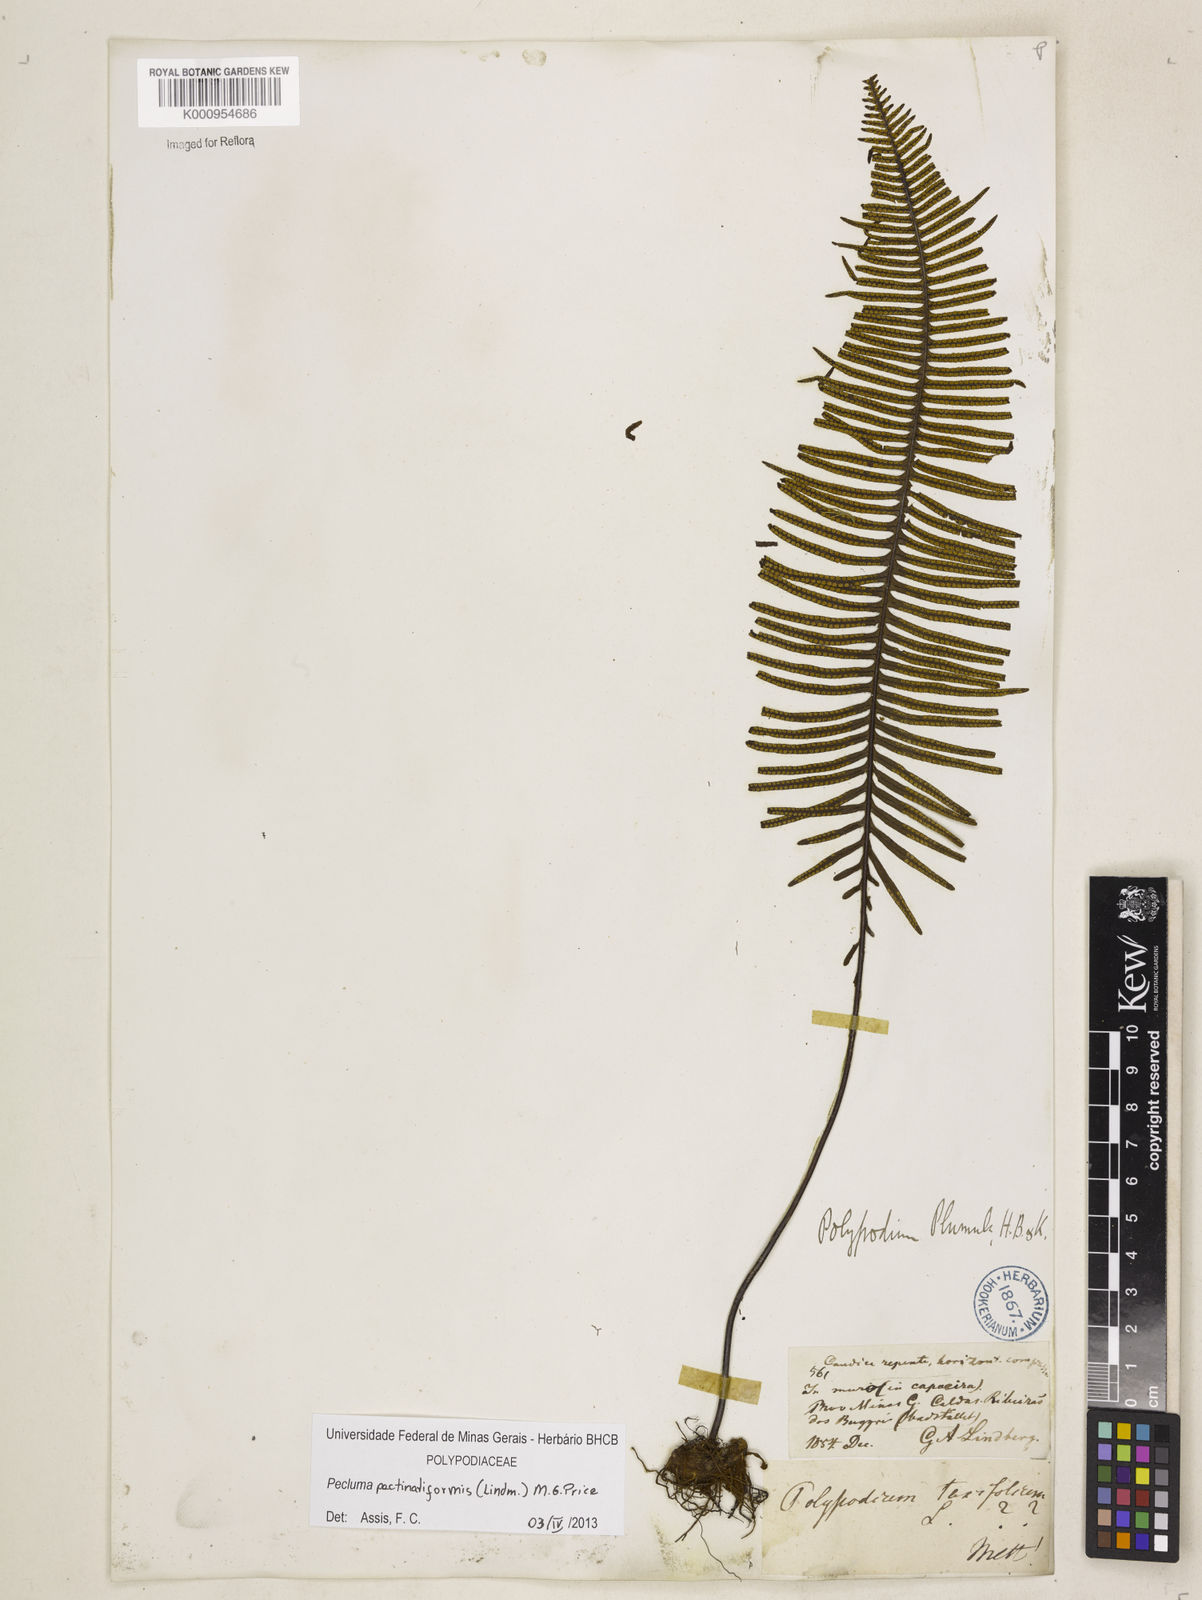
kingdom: Plantae
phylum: Tracheophyta
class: Polypodiopsida
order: Polypodiales
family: Polypodiaceae
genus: Pecluma
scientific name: Pecluma pectinatiformis
